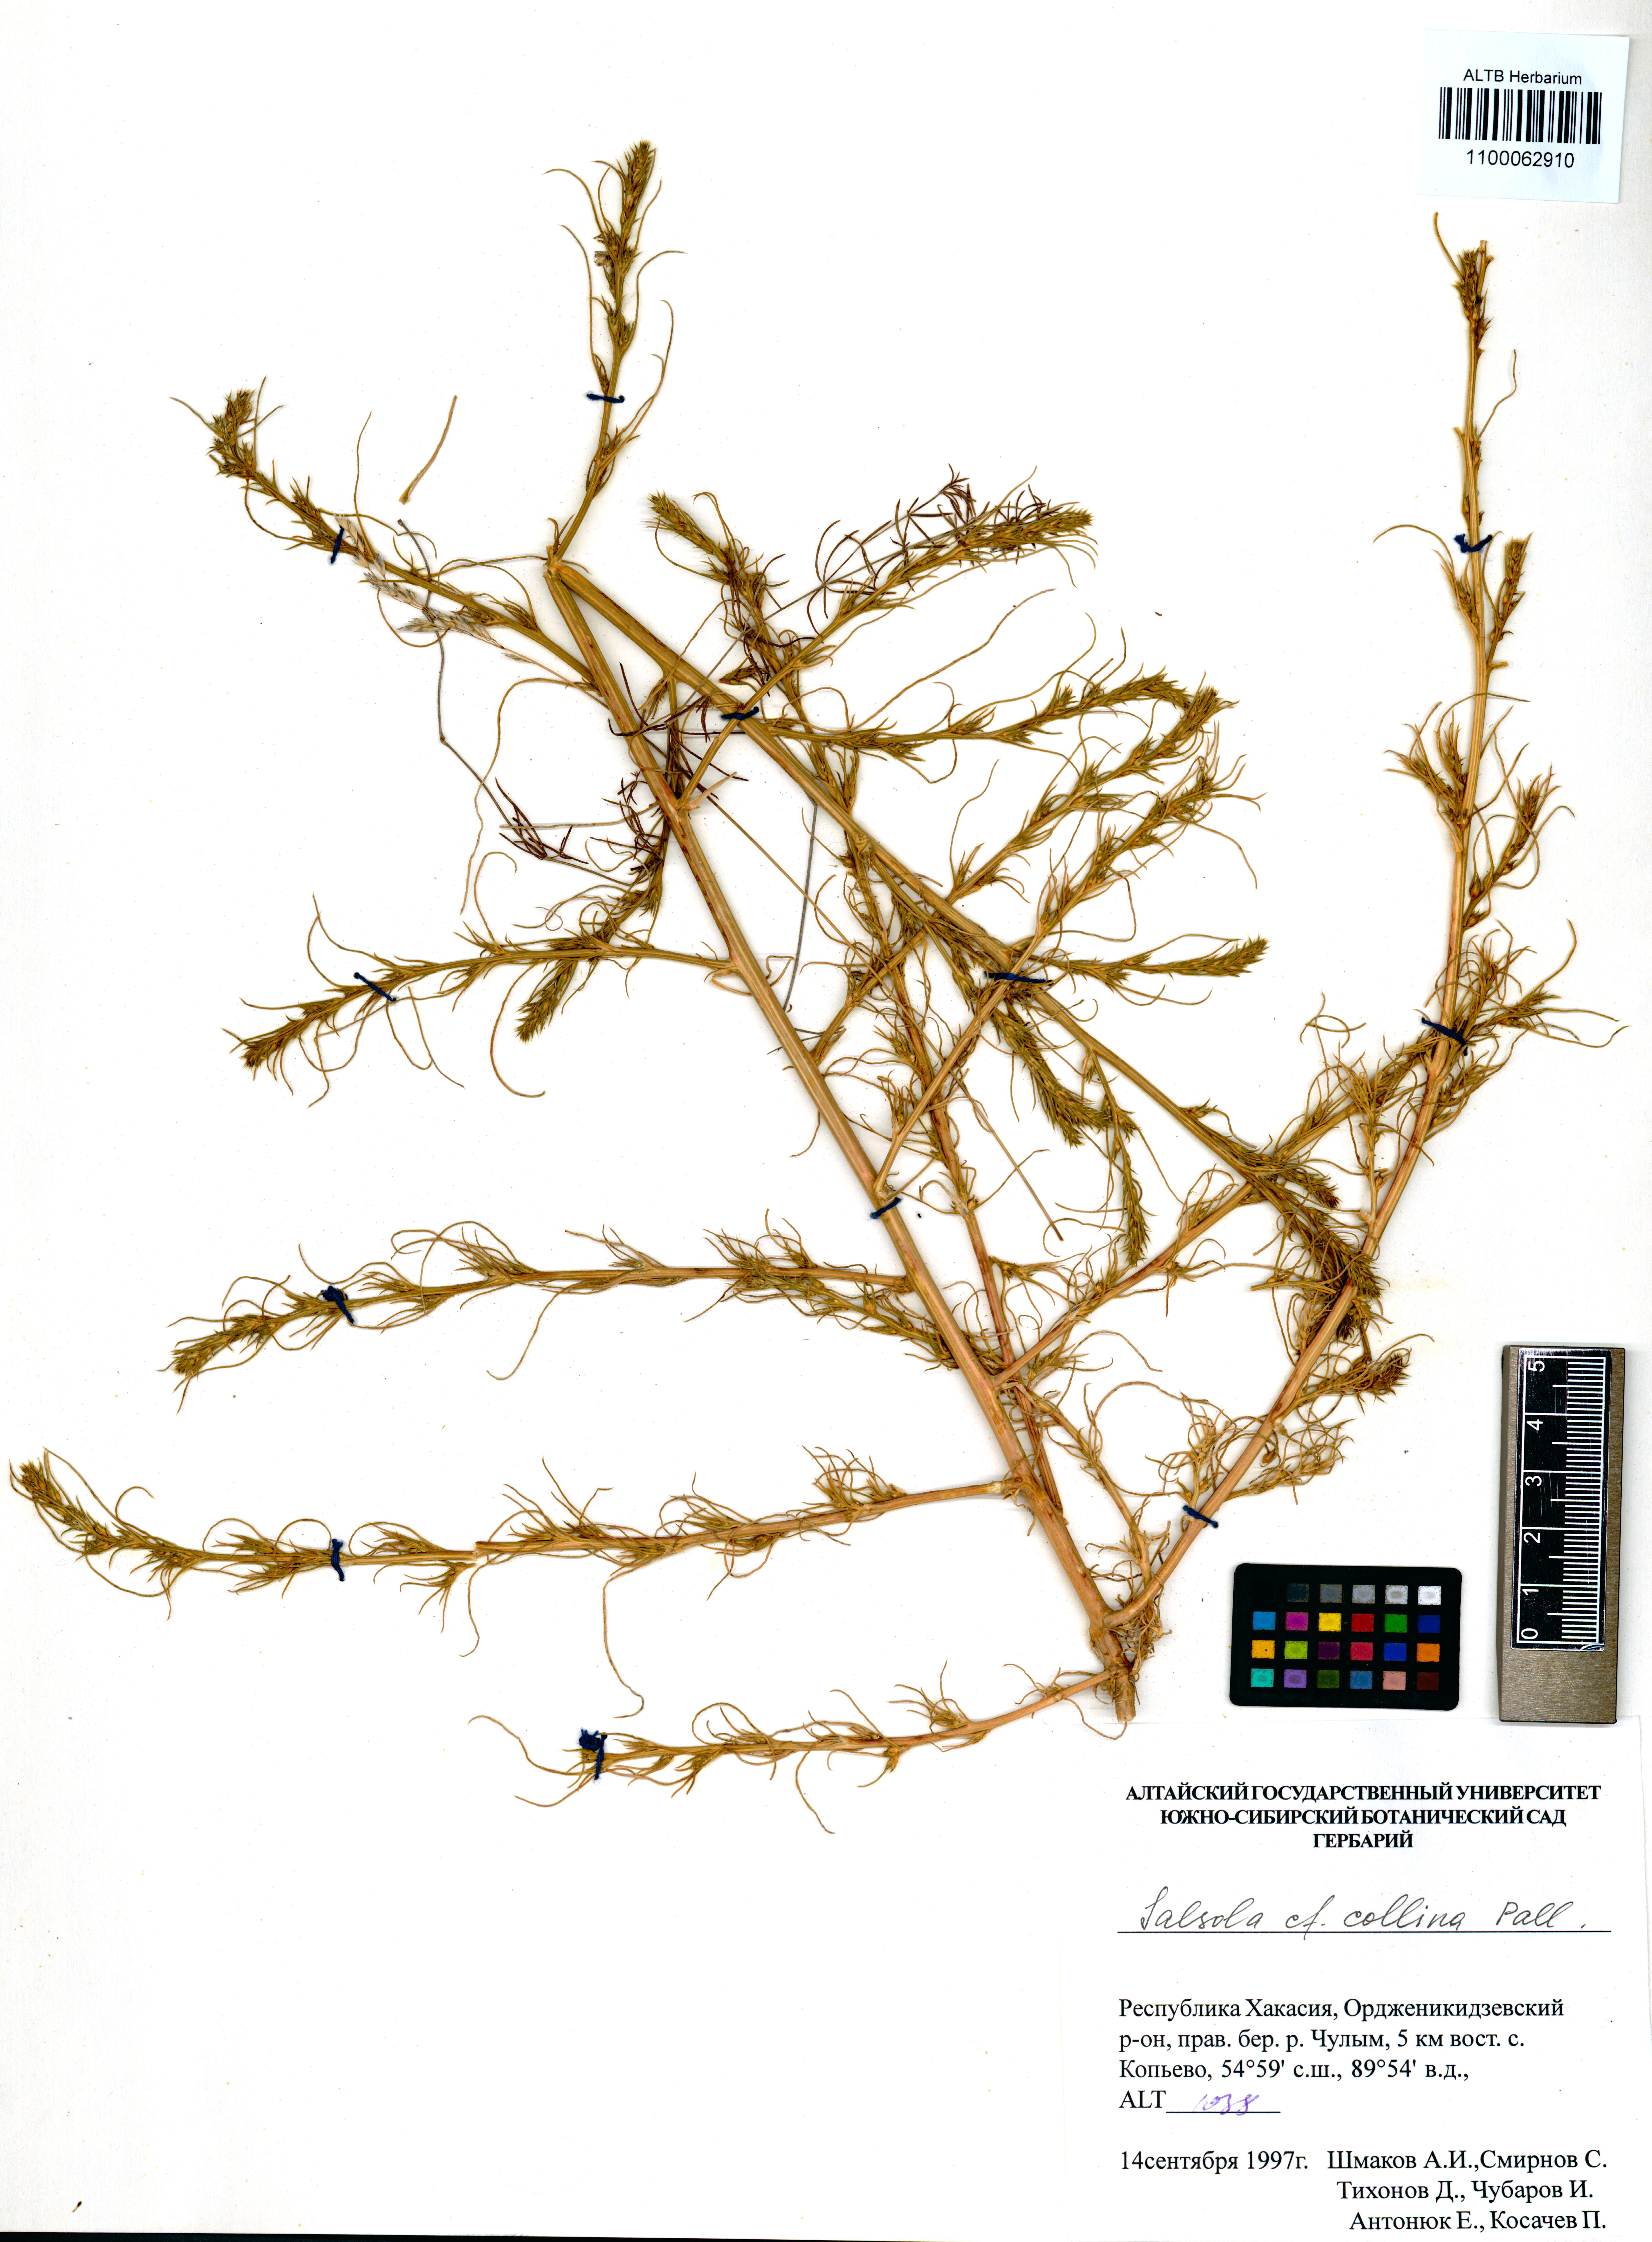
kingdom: Plantae
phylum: Tracheophyta
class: Magnoliopsida
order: Caryophyllales
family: Amaranthaceae
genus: Salsola
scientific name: Salsola collina
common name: Tumbleweed
